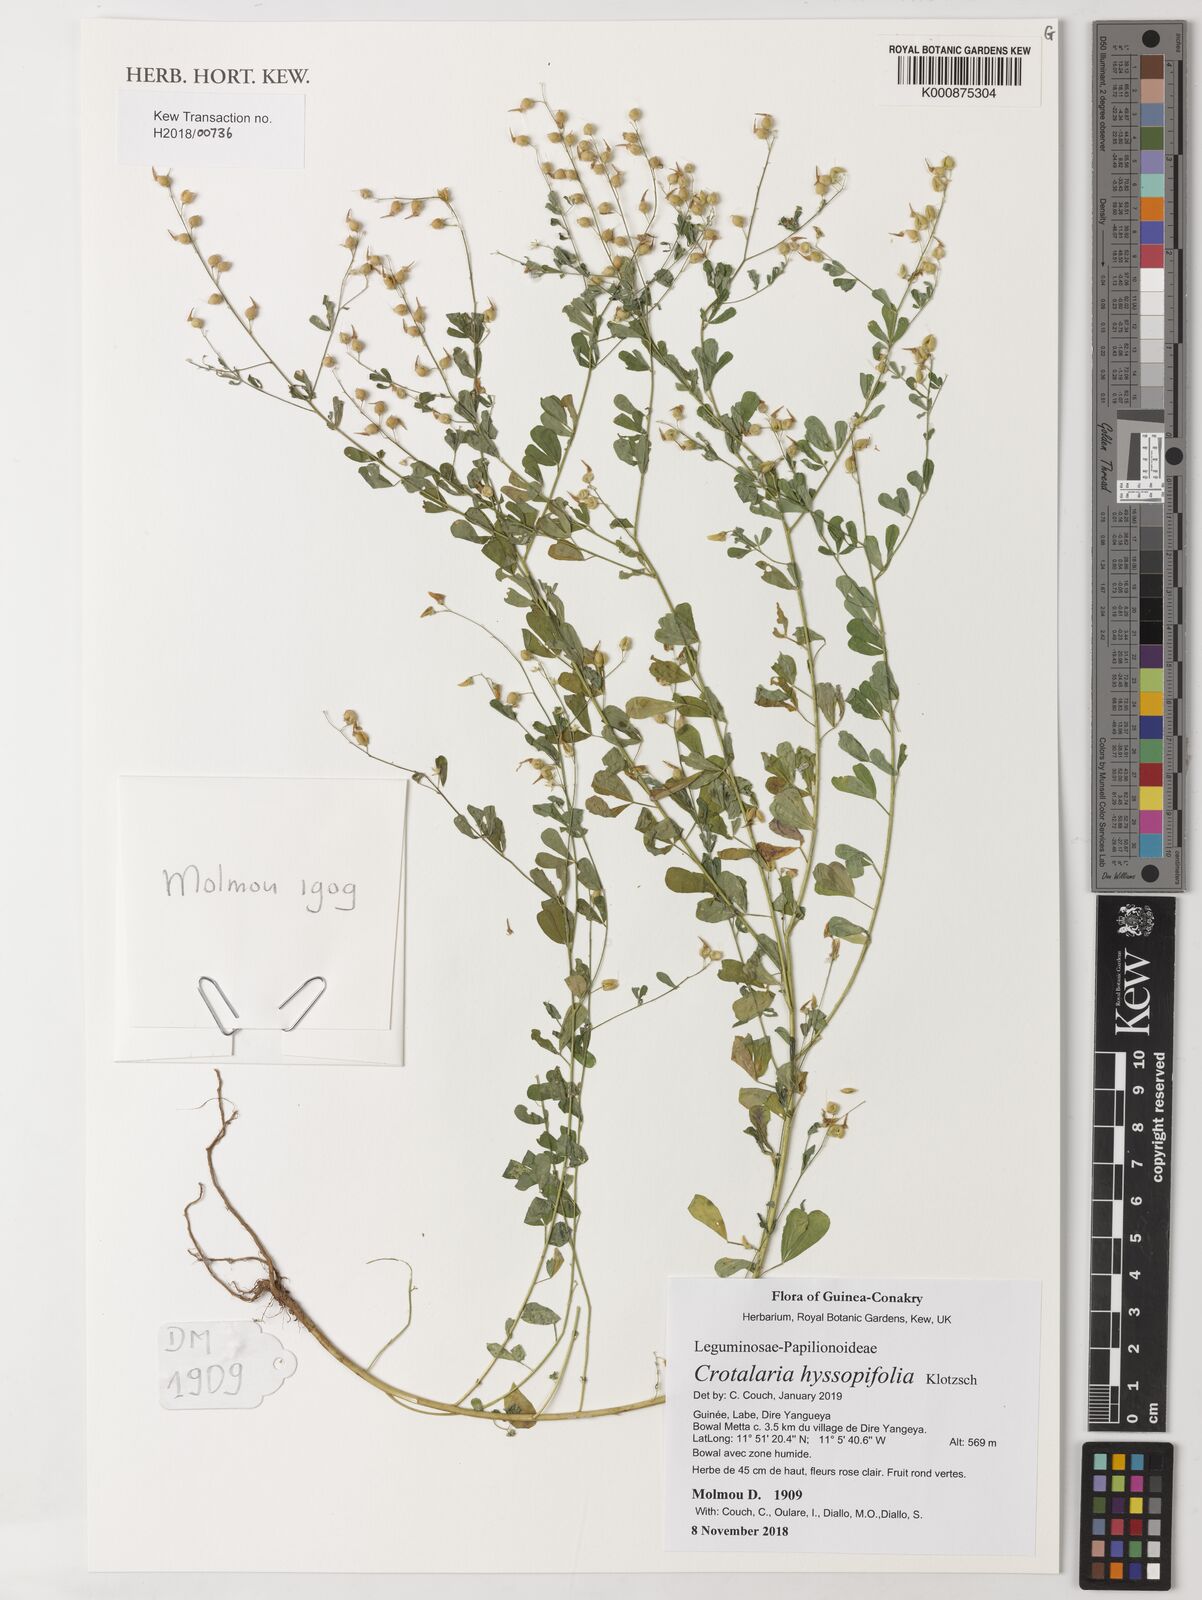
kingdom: Plantae
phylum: Tracheophyta
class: Magnoliopsida
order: Fabales
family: Fabaceae
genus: Crotalaria
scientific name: Crotalaria hyssopifolia
